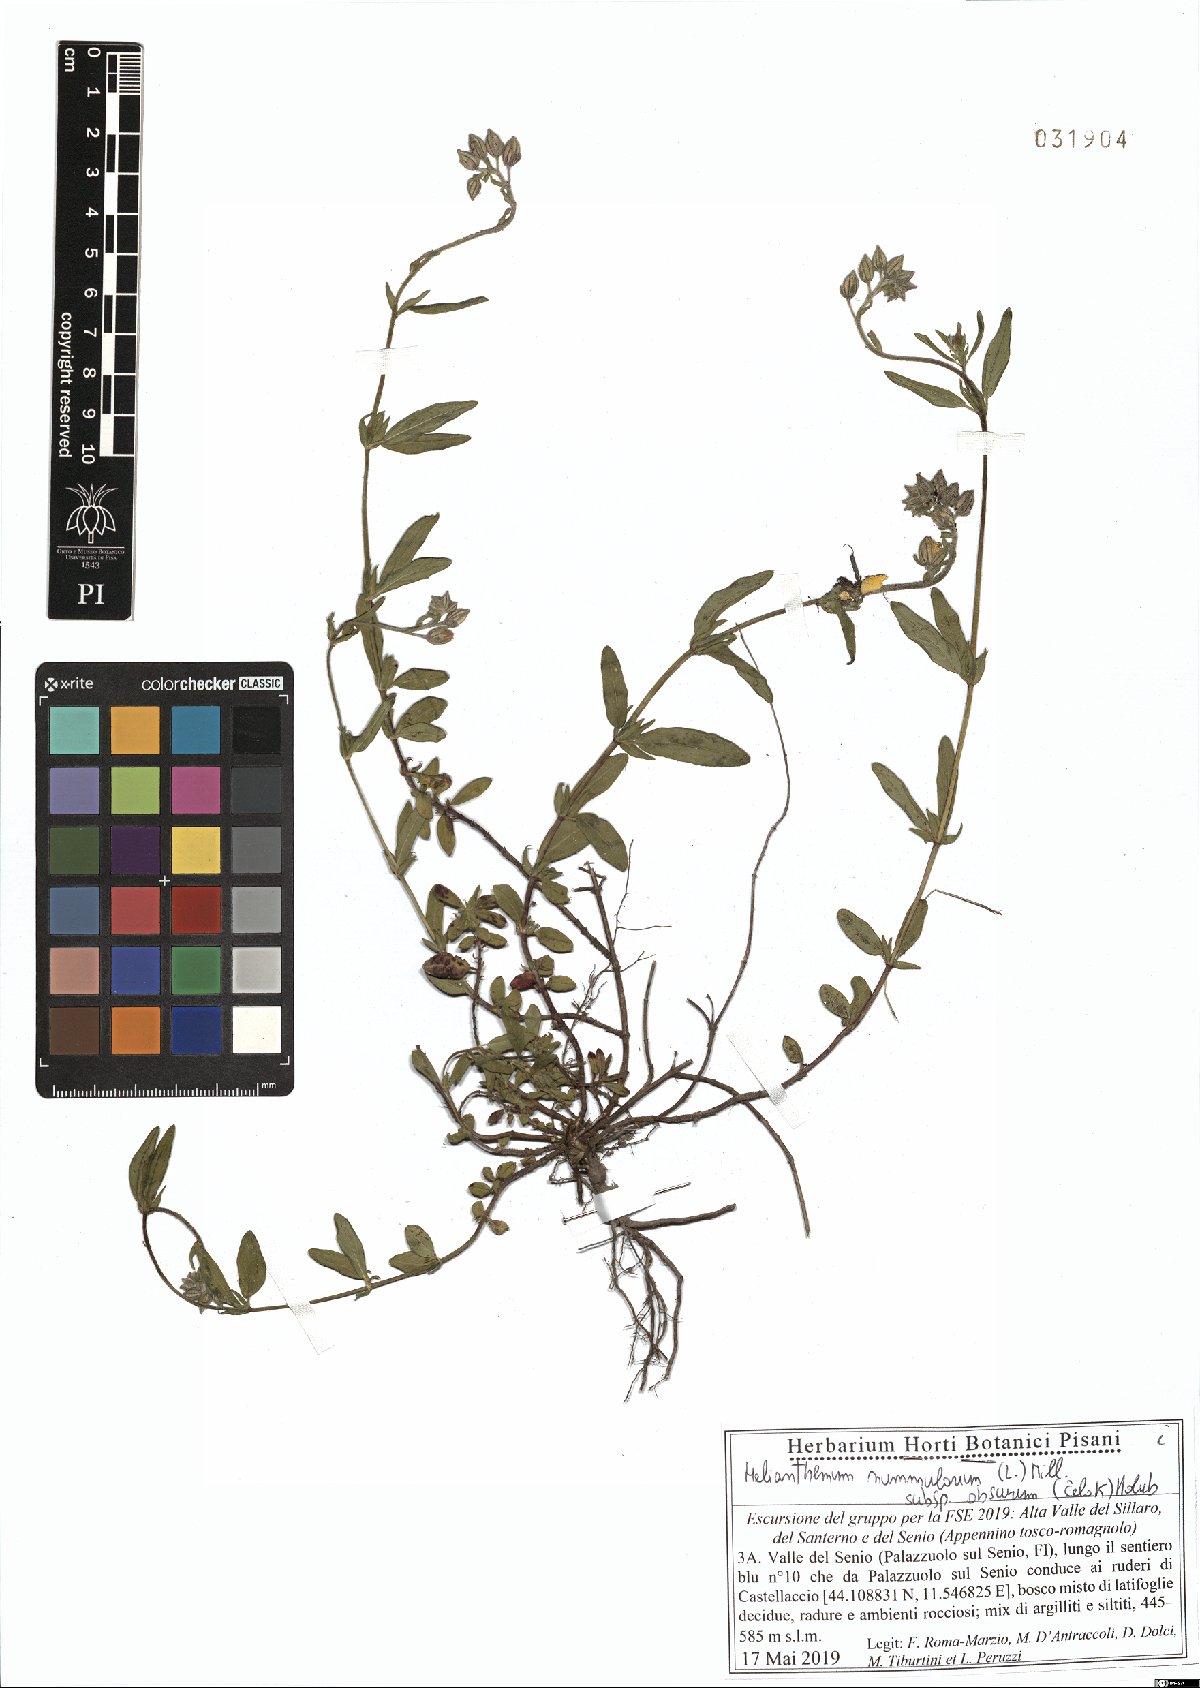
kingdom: Plantae
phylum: Tracheophyta
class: Magnoliopsida
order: Malvales
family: Cistaceae
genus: Helianthemum
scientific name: Helianthemum nummularium
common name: Common rock-rose
